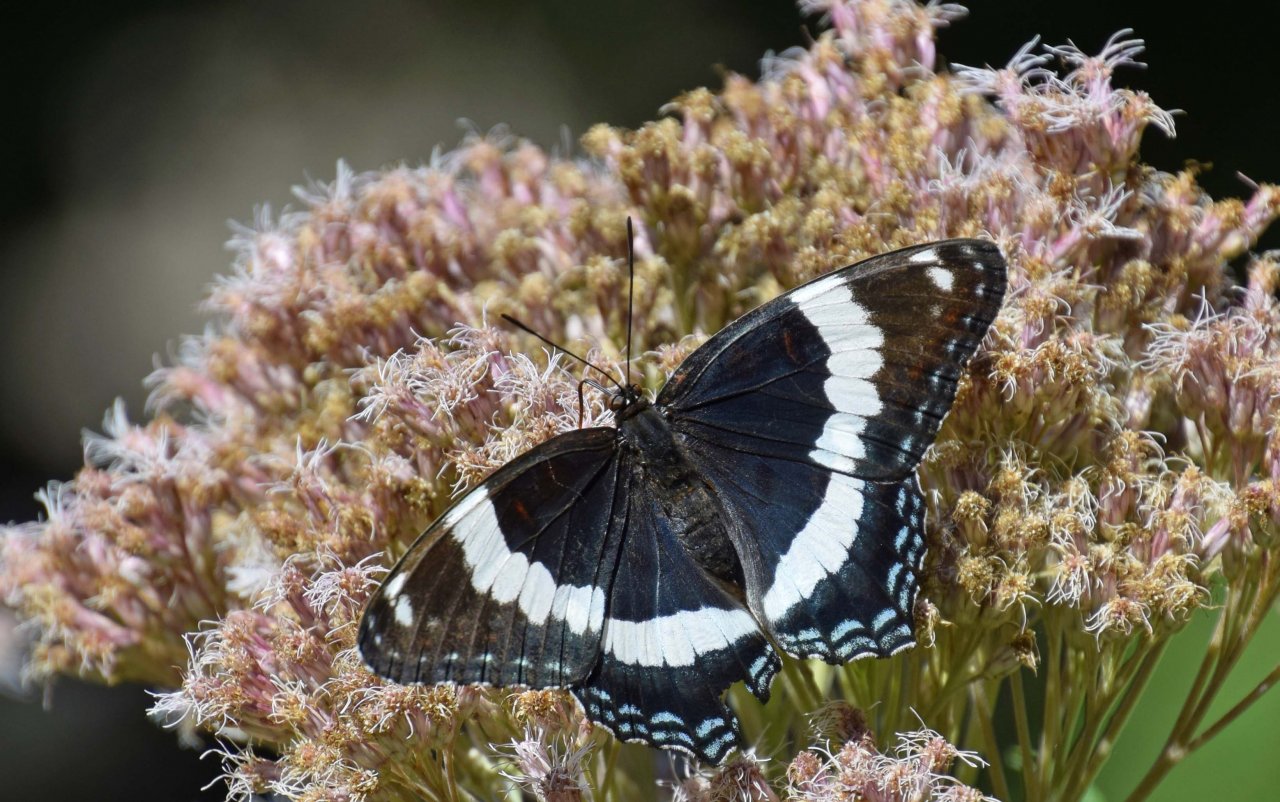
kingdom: Animalia
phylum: Arthropoda
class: Insecta
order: Lepidoptera
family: Nymphalidae
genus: Limenitis
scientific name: Limenitis arthemis
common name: Red-spotted Admiral
